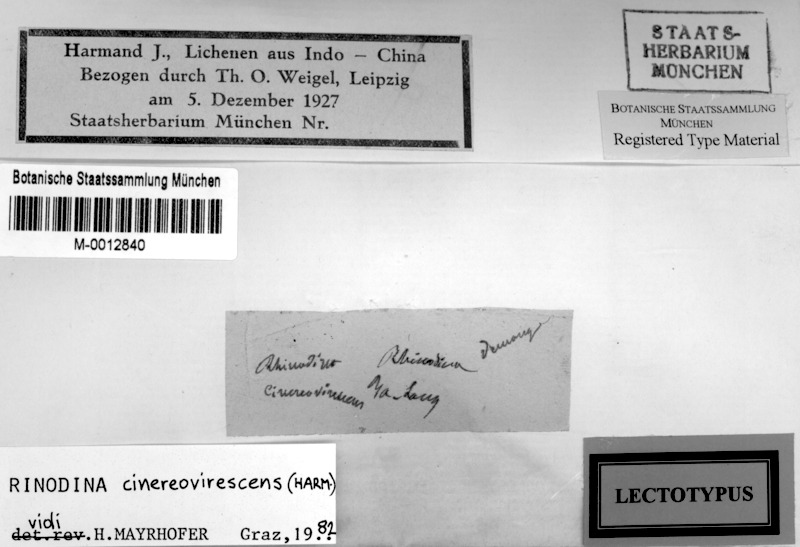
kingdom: Fungi
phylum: Ascomycota
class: Lecanoromycetes
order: Caliciales
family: Physciaceae
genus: Rinodina
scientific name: Rinodina
